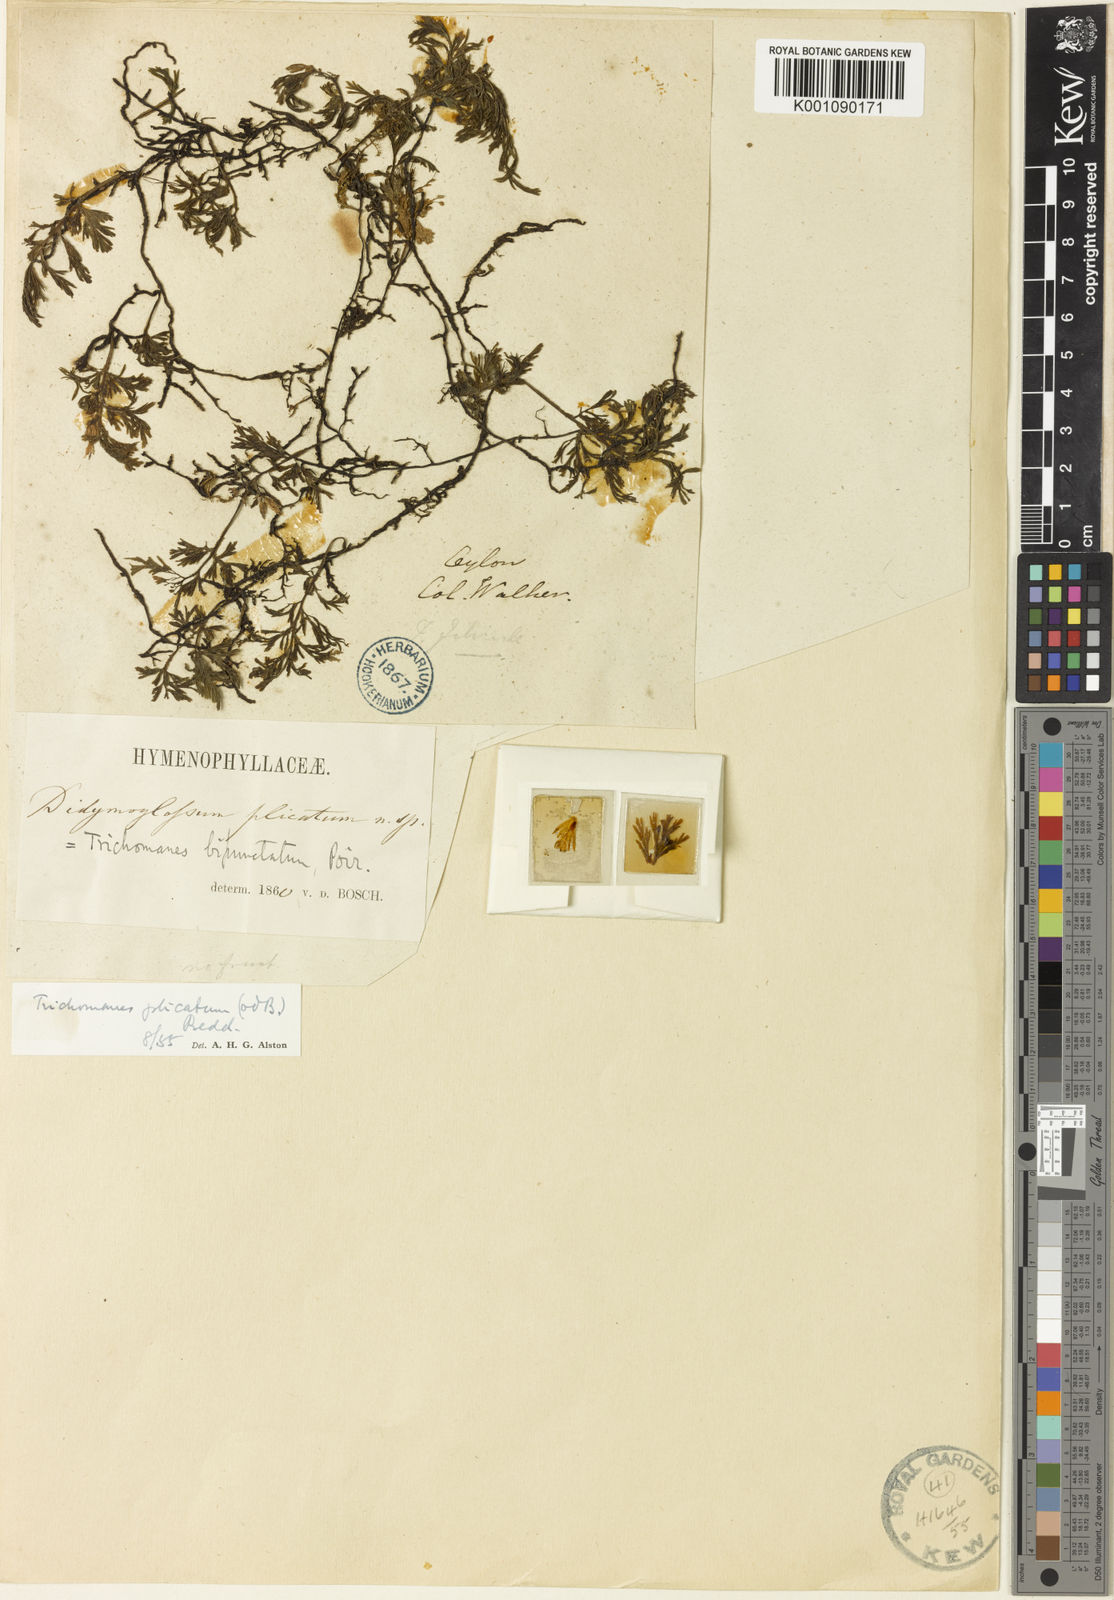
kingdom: Plantae
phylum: Tracheophyta
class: Polypodiopsida
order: Hymenophyllales
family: Hymenophyllaceae
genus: Crepidomanes
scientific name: Crepidomanes campanulatum
